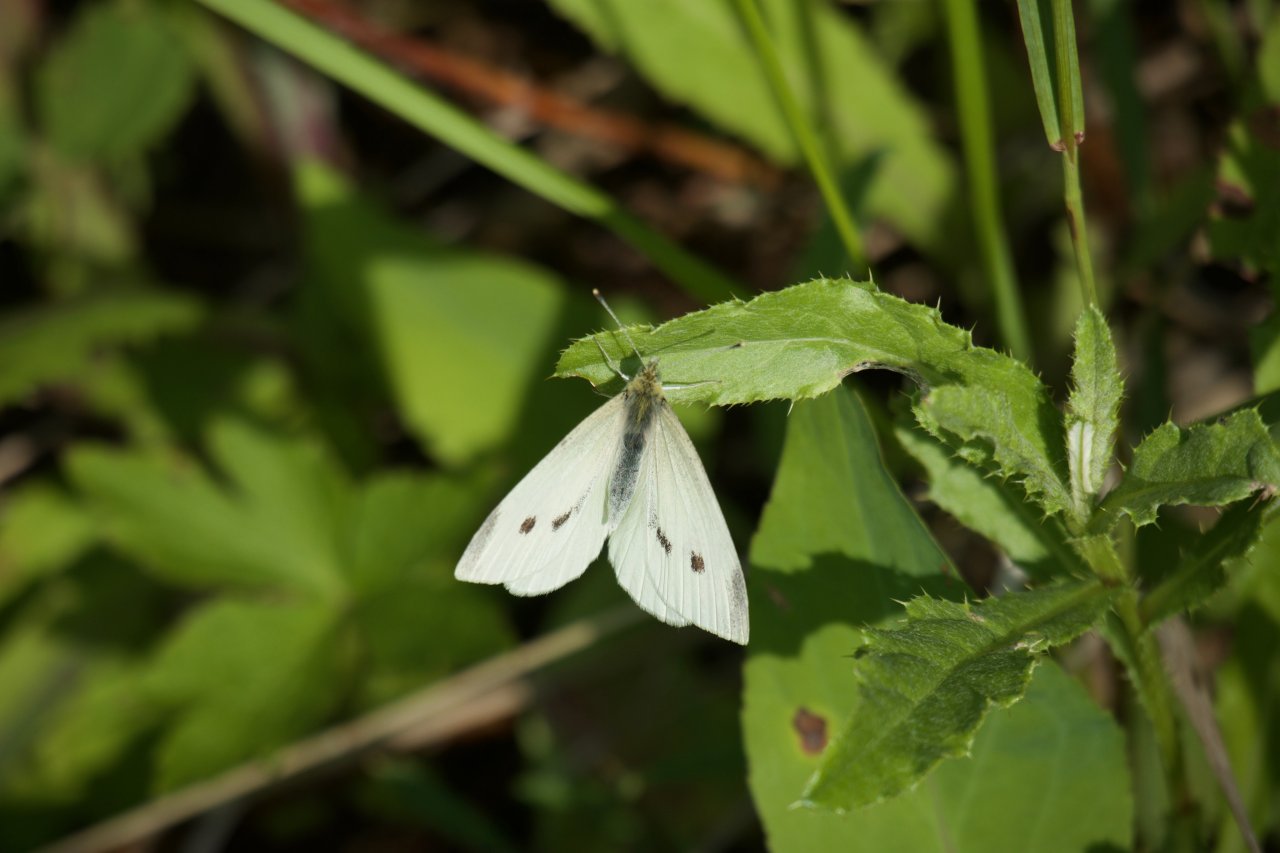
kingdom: Animalia
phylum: Arthropoda
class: Insecta
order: Lepidoptera
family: Pieridae
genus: Pieris
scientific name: Pieris rapae
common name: Cabbage White
